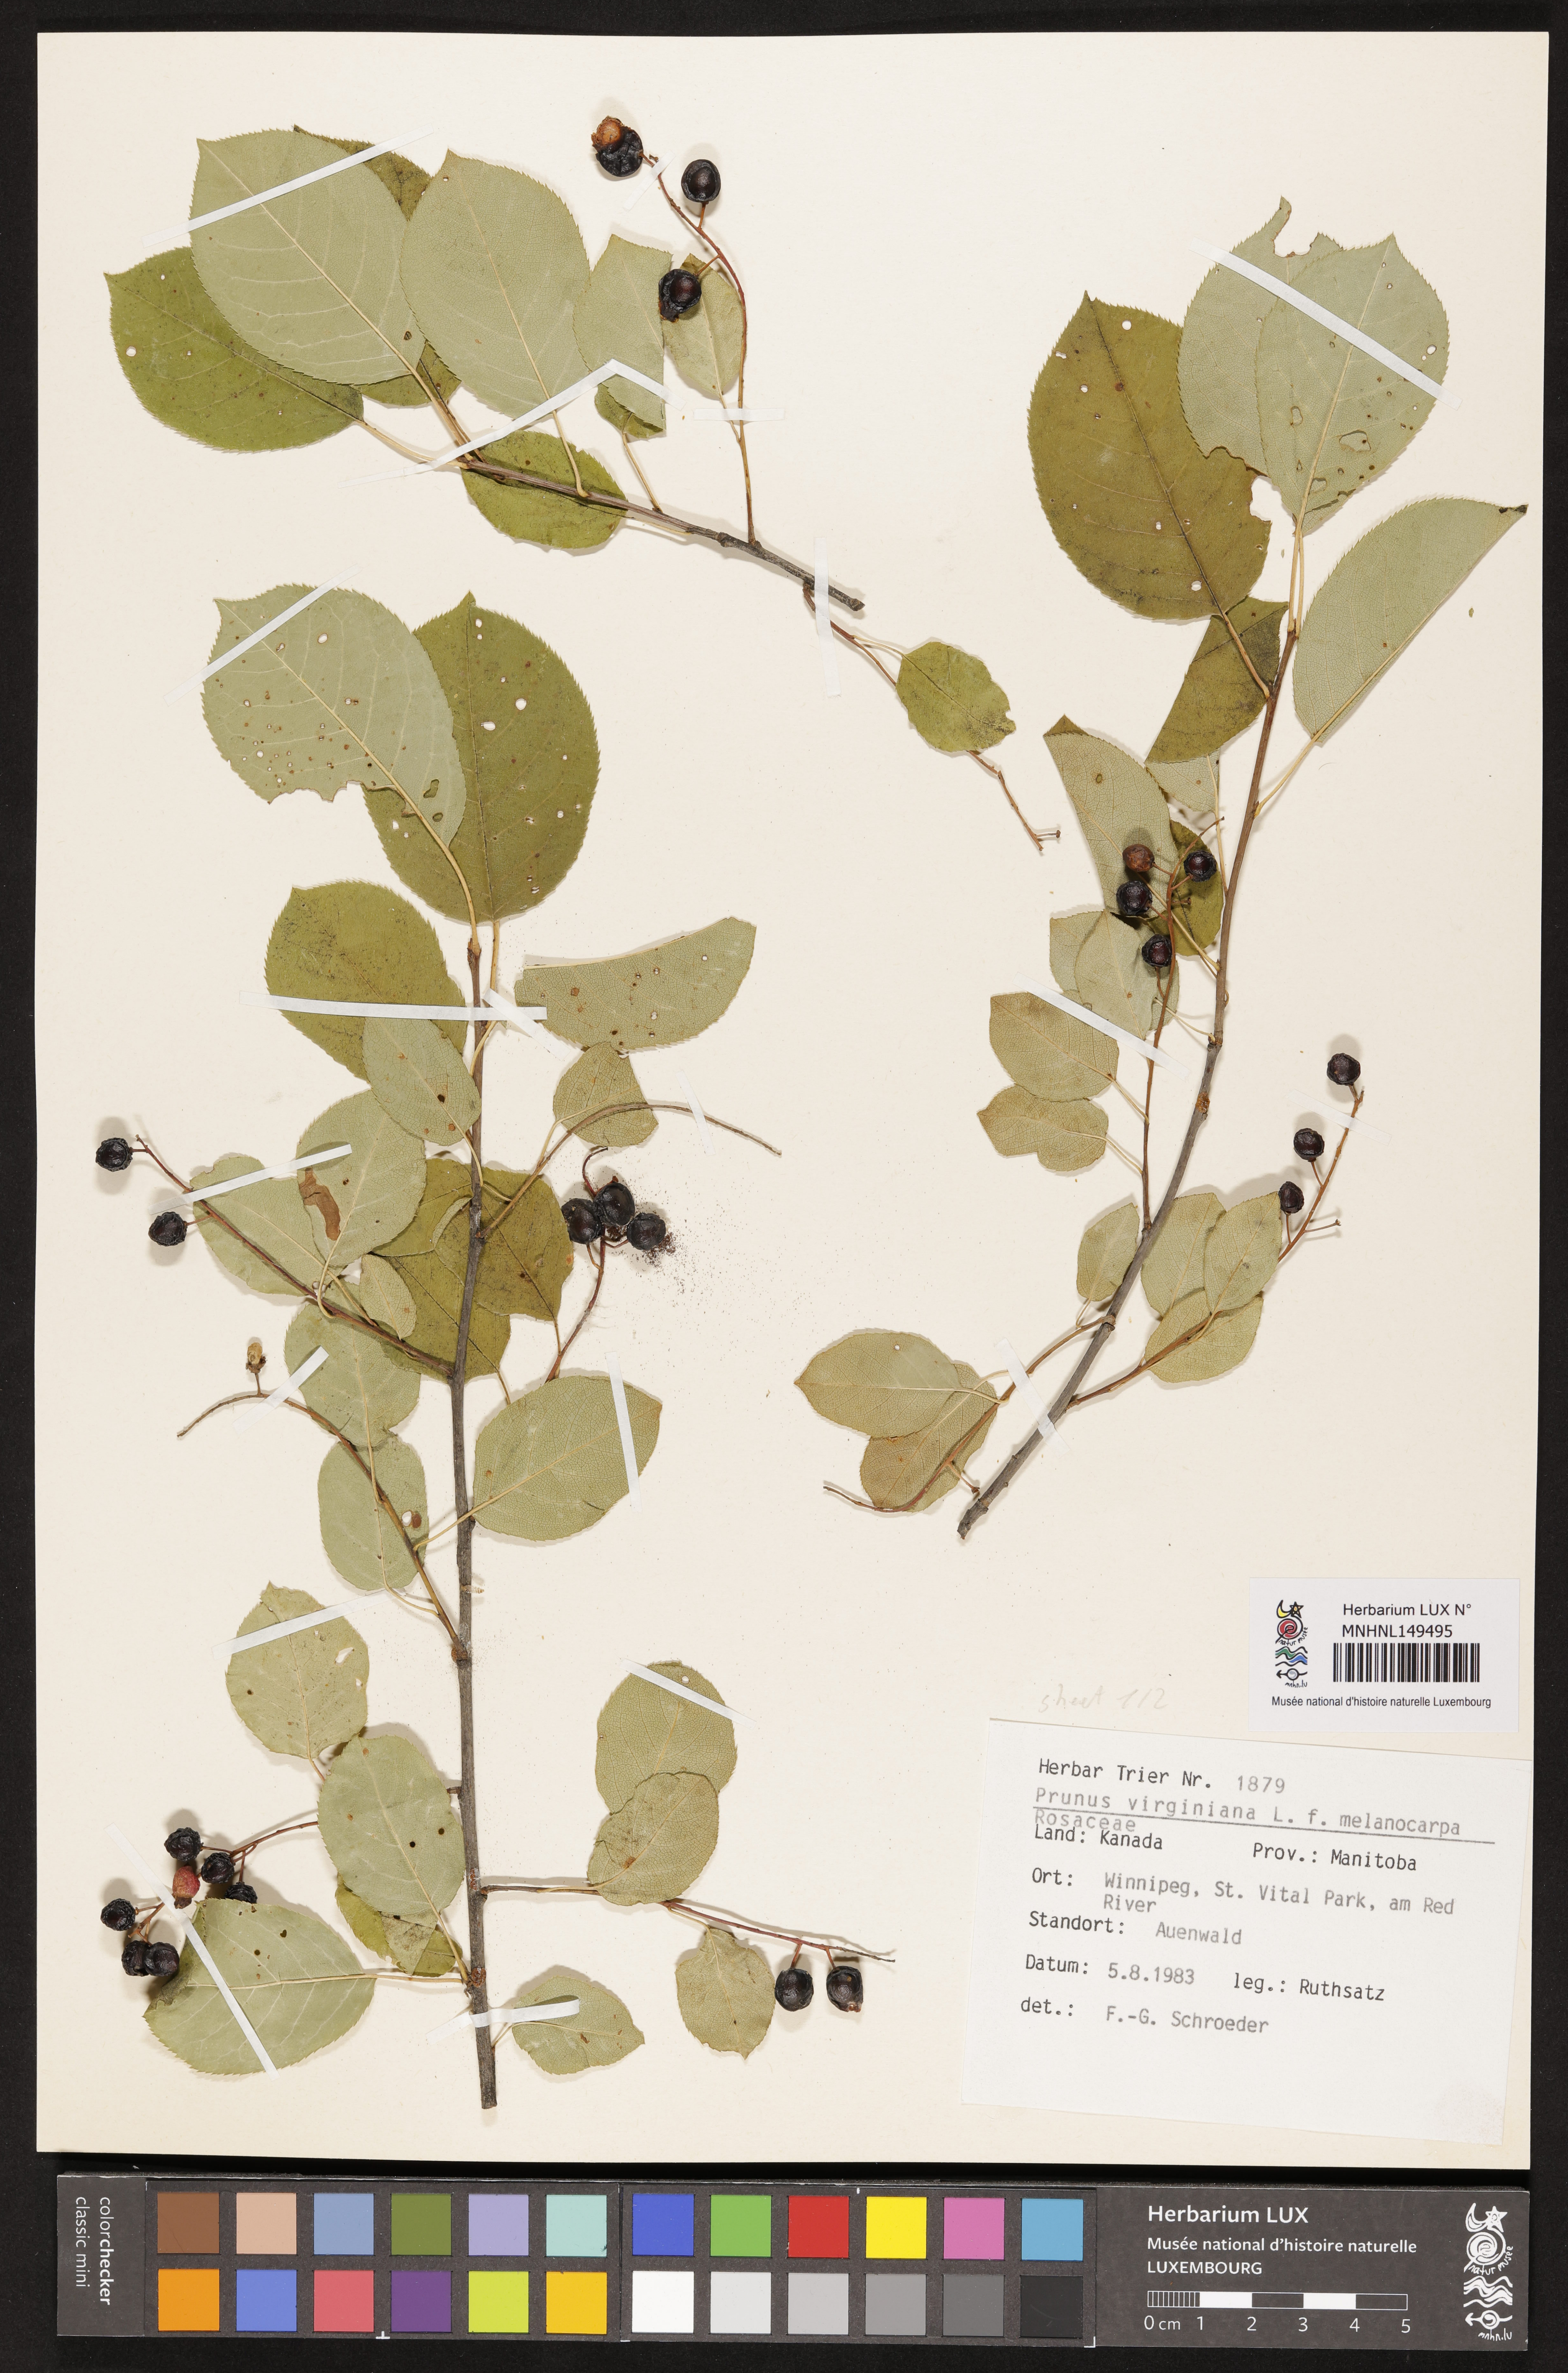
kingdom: Plantae
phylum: Tracheophyta
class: Magnoliopsida
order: Rosales
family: Rosaceae
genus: Prunus
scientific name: Prunus virginiana
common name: Chokecherry
